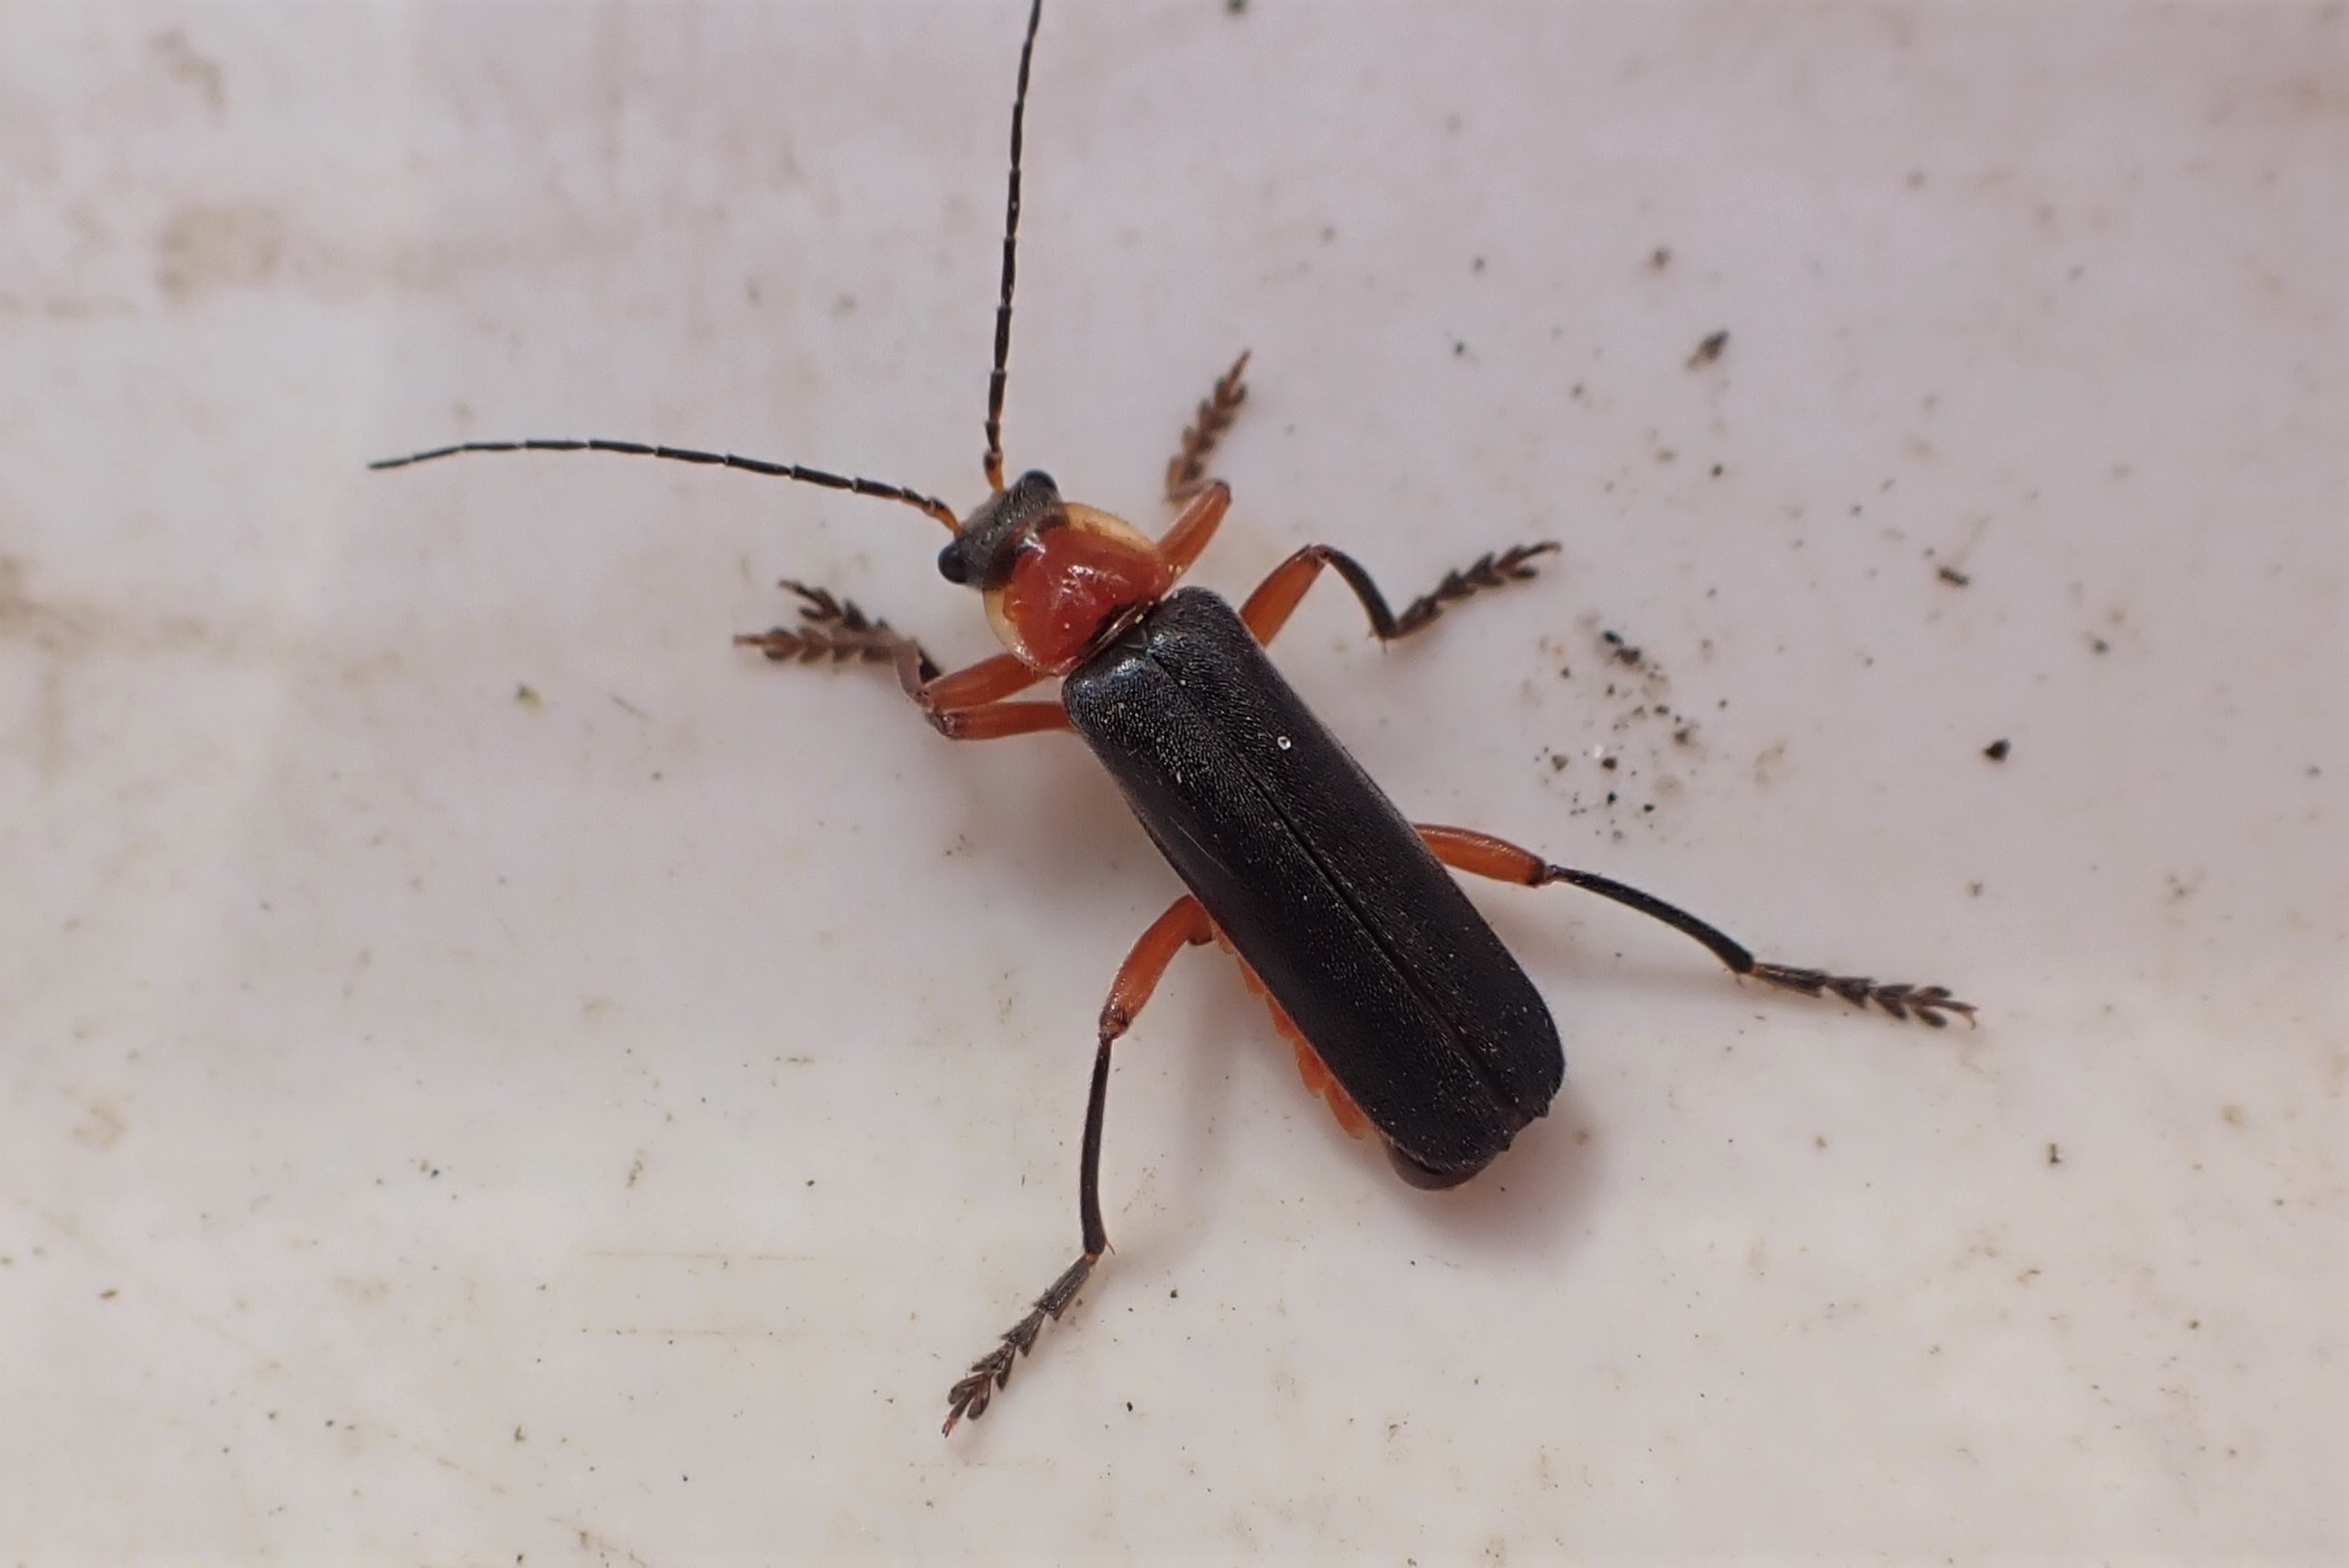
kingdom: Animalia
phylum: Arthropoda
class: Insecta
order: Coleoptera
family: Cantharidae
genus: Cantharis
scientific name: Cantharis pellucida
